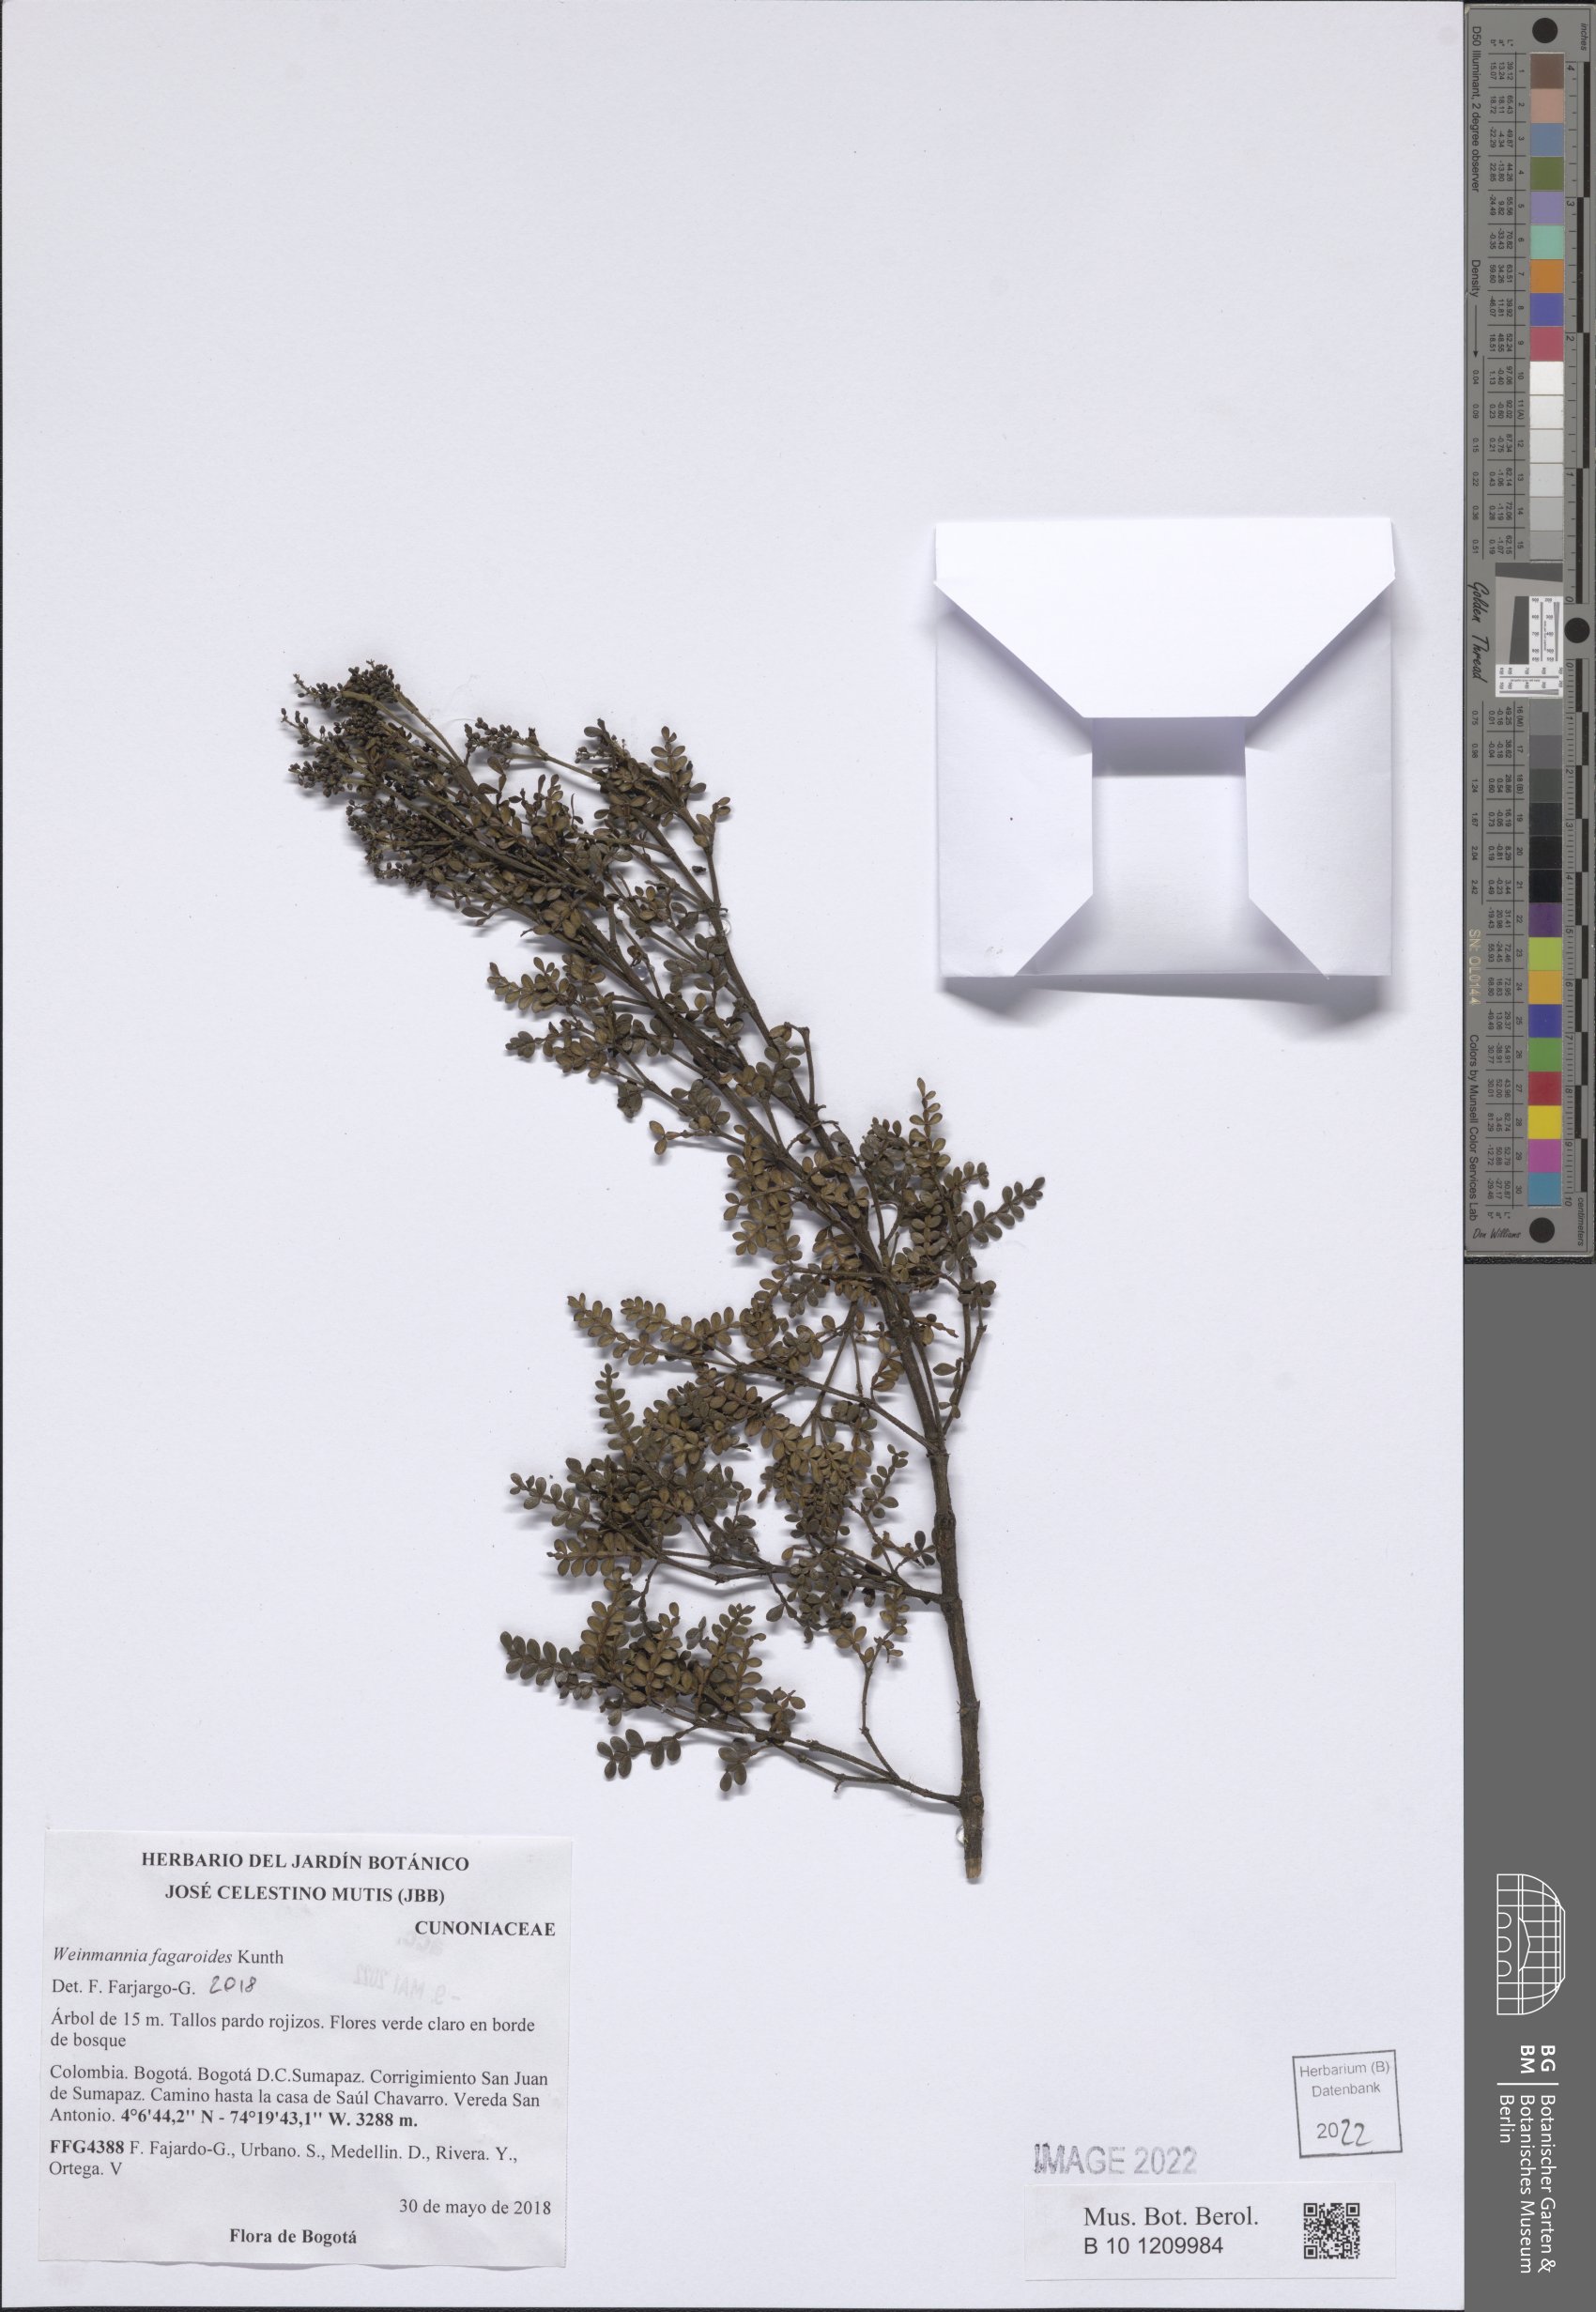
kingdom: Plantae
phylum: Tracheophyta
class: Magnoliopsida
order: Oxalidales
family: Cunoniaceae
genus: Weinmannia
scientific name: Weinmannia fagaroides
